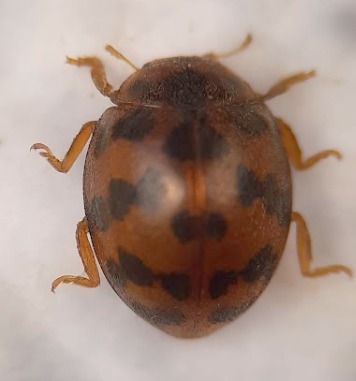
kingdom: Animalia
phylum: Arthropoda
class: Insecta
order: Coleoptera
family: Coccinellidae
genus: Subcoccinella
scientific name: Subcoccinella vigintiquatuorpunctata
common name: Fireogtyveplettet mariehøne
